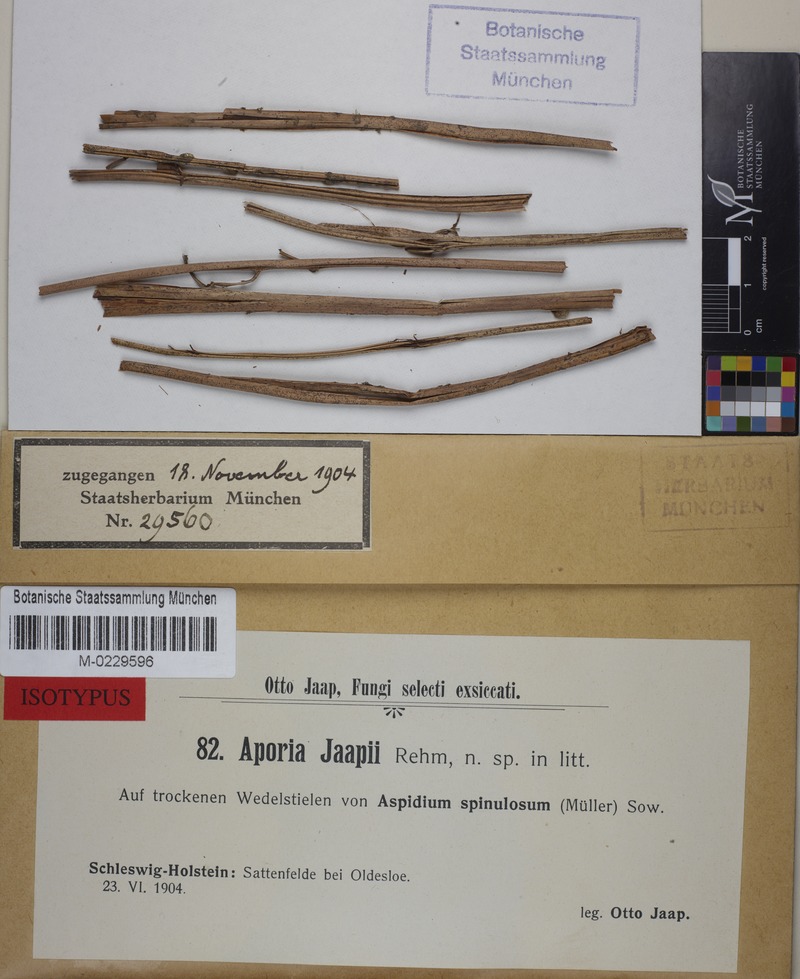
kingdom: Fungi
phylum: Ascomycota
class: Arthoniomycetes
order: Arthoniales
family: Opegraphaceae
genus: Fouragea
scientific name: Fouragea filicina
